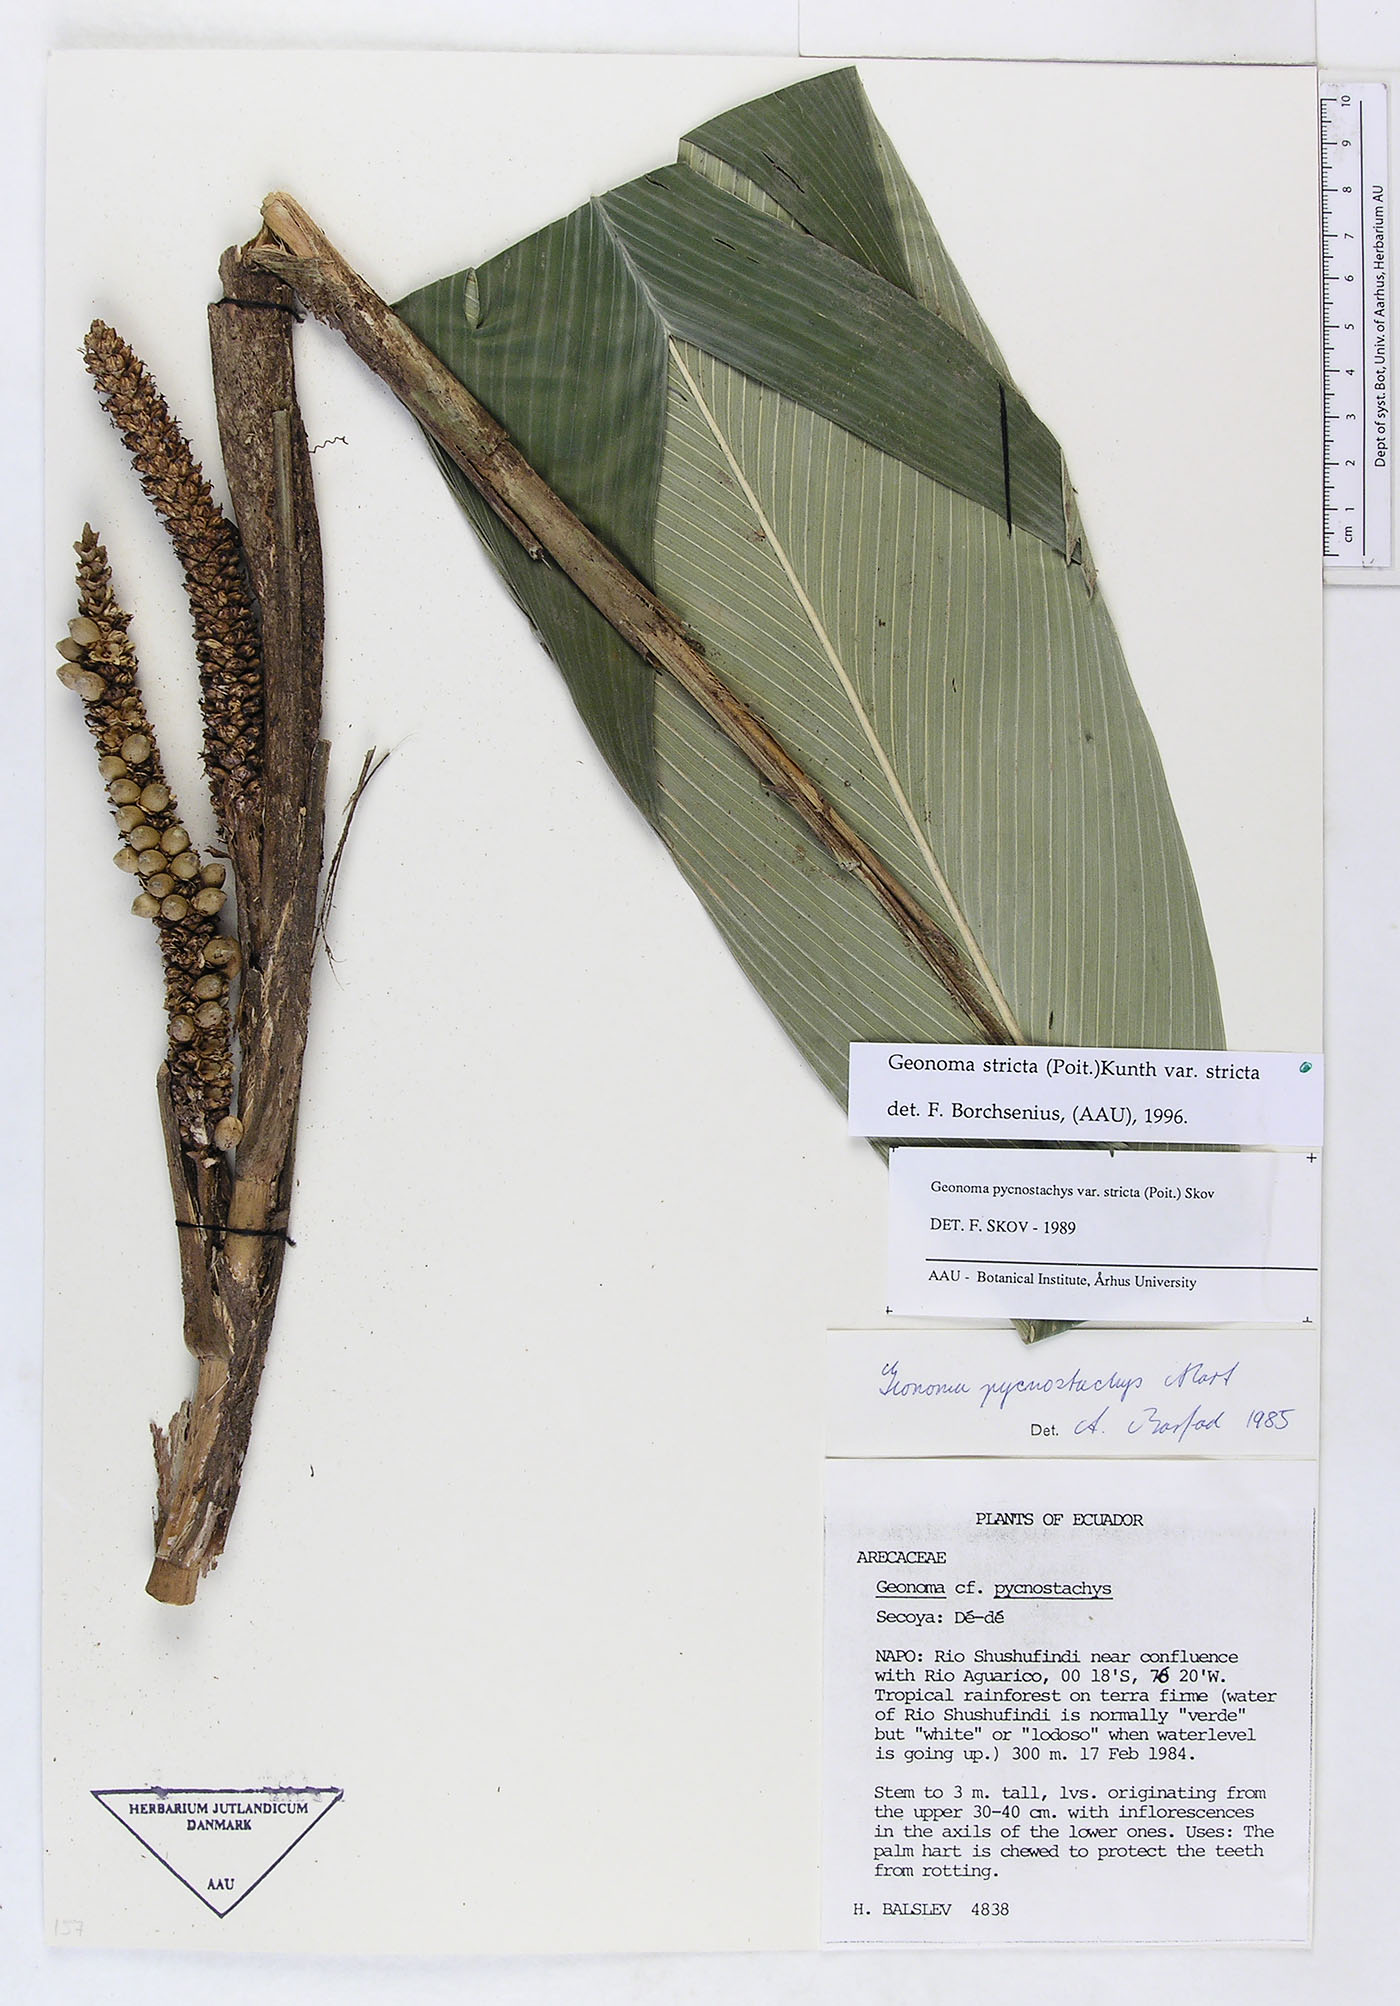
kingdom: Plantae
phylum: Tracheophyta
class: Liliopsida
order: Arecales
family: Arecaceae
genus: Geonoma
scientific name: Geonoma stricta
